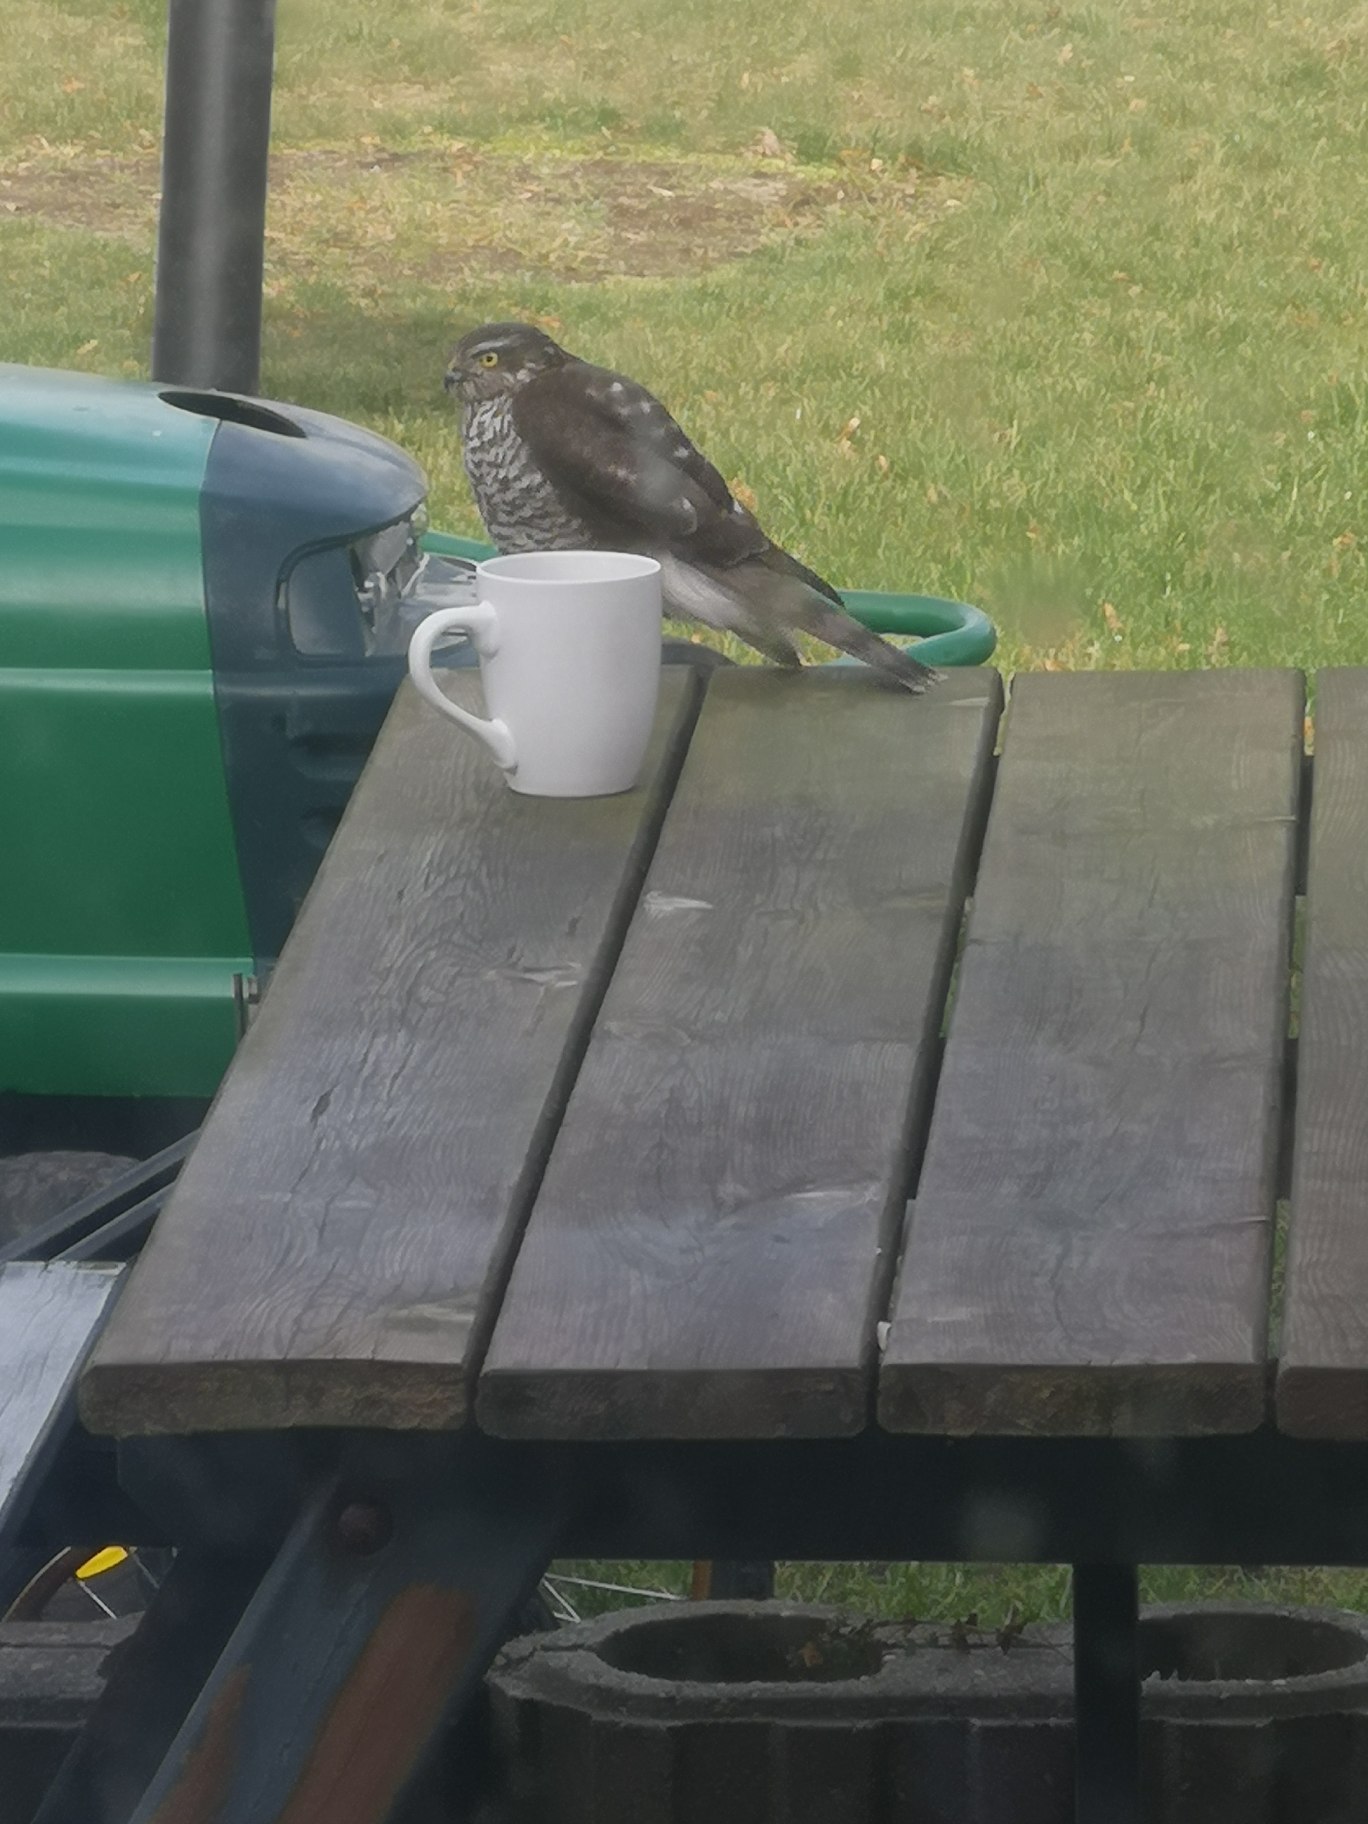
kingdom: Animalia
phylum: Chordata
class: Aves
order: Accipitriformes
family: Accipitridae
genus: Accipiter
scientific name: Accipiter nisus
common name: Spurvehøg
